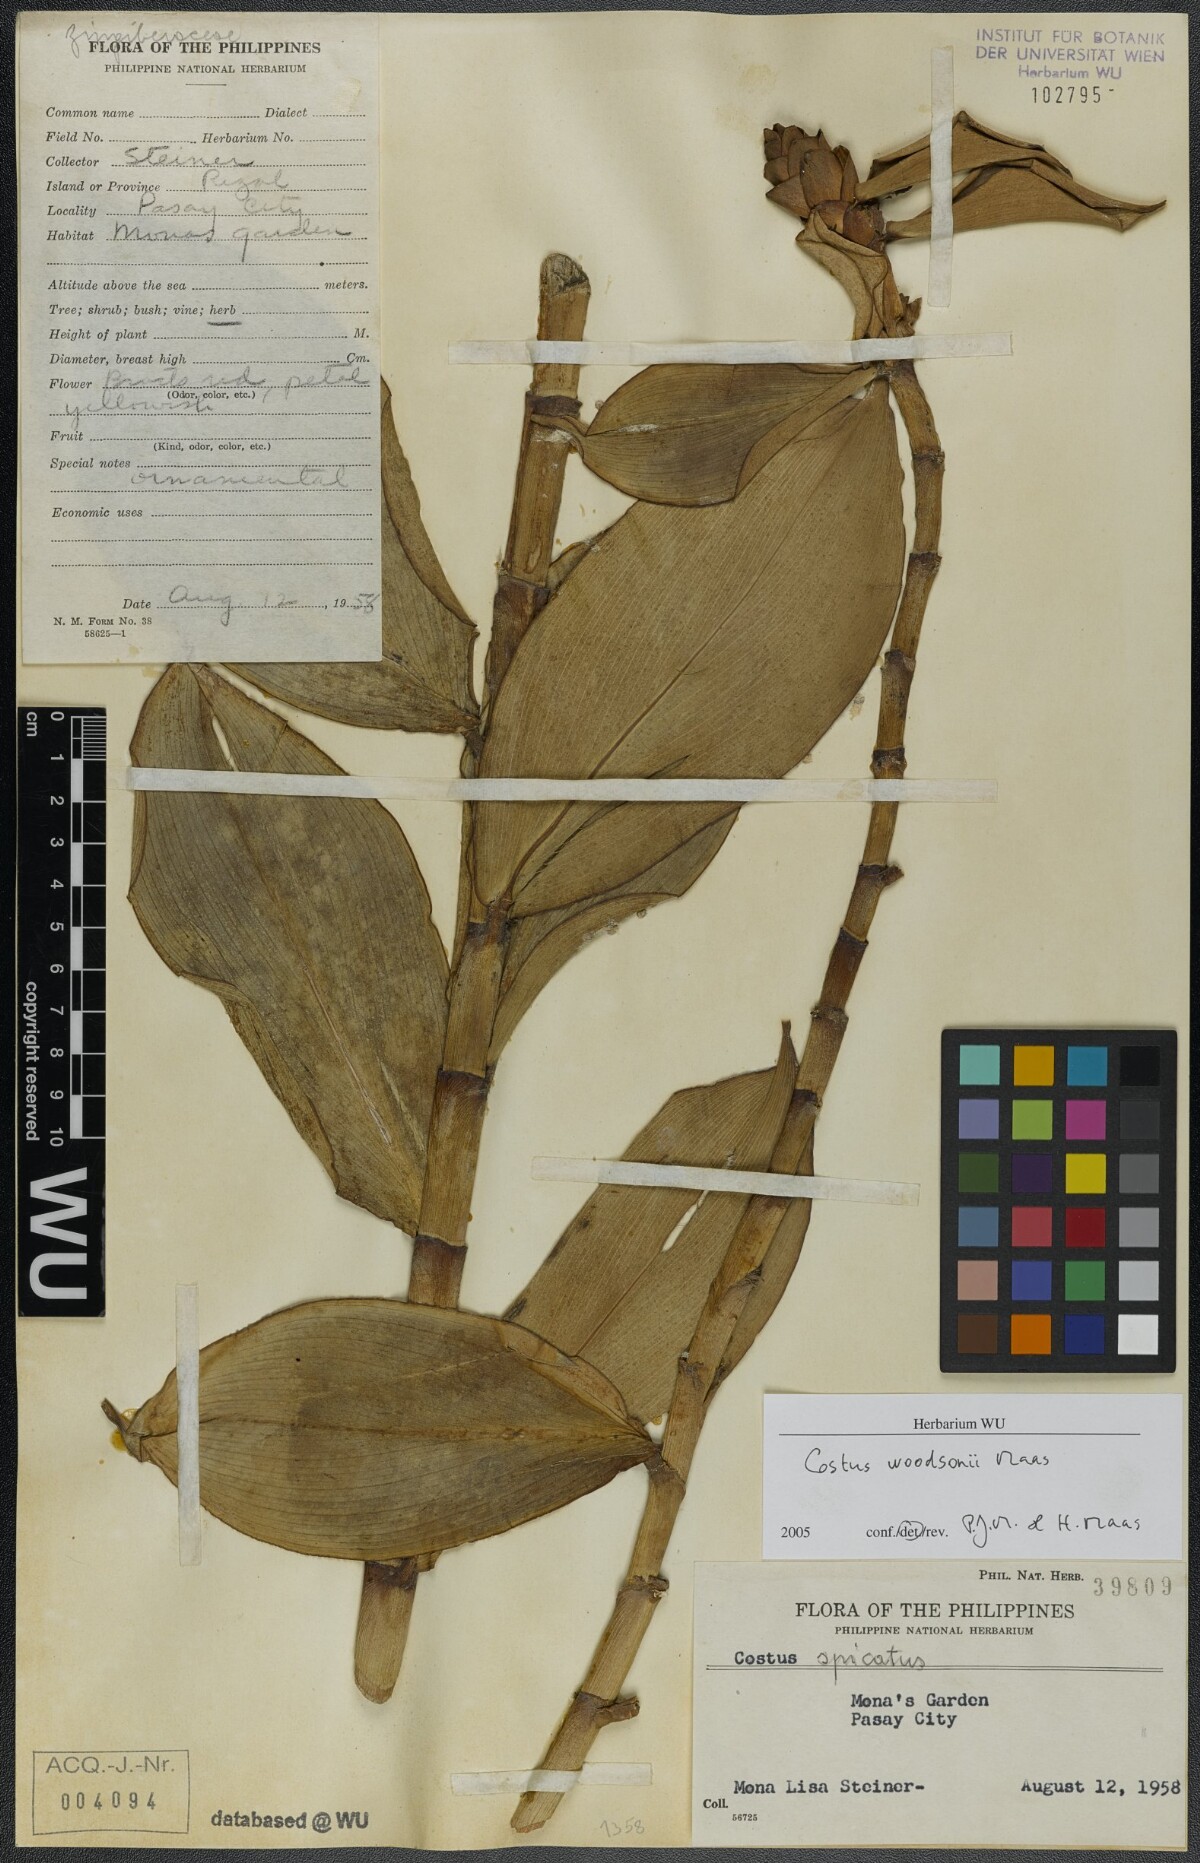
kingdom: Plantae
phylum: Tracheophyta
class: Liliopsida
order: Zingiberales
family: Costaceae
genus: Costus
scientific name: Costus woodsonii
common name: Scarlet spiral-ginger
